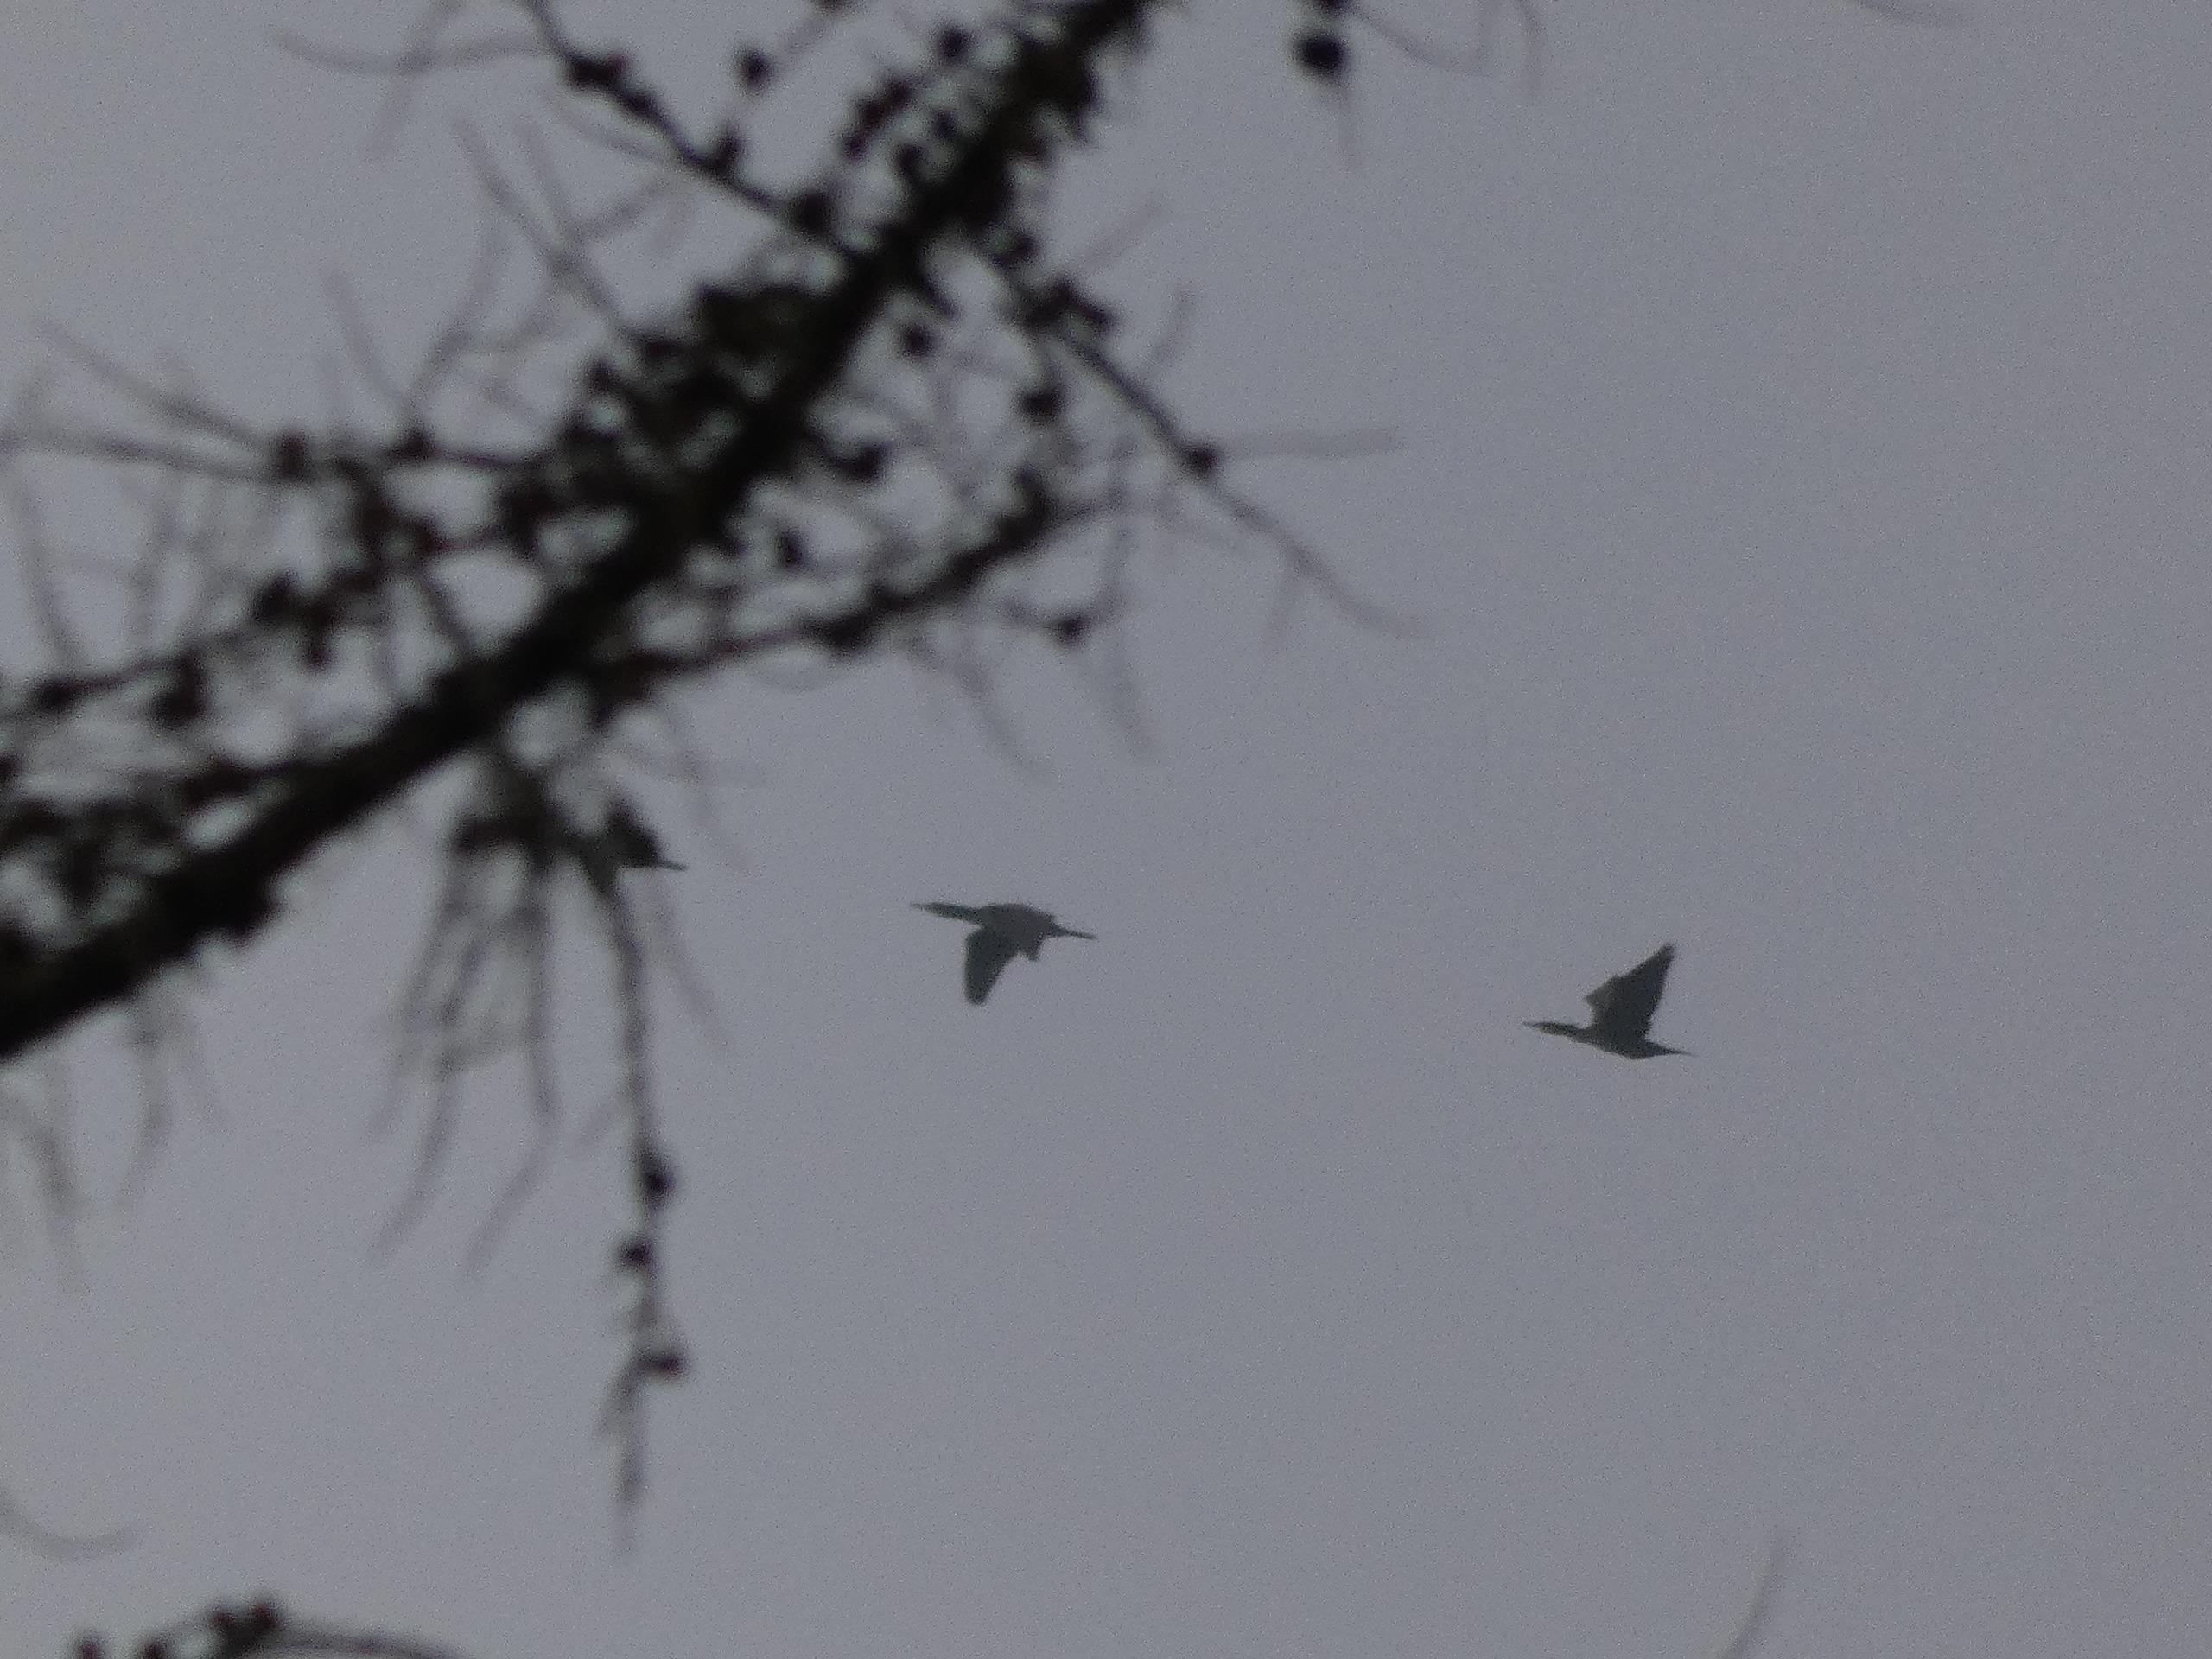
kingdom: Animalia
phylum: Chordata
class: Aves
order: Suliformes
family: Phalacrocoracidae
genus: Phalacrocorax
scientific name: Phalacrocorax carbo
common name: Skarv
